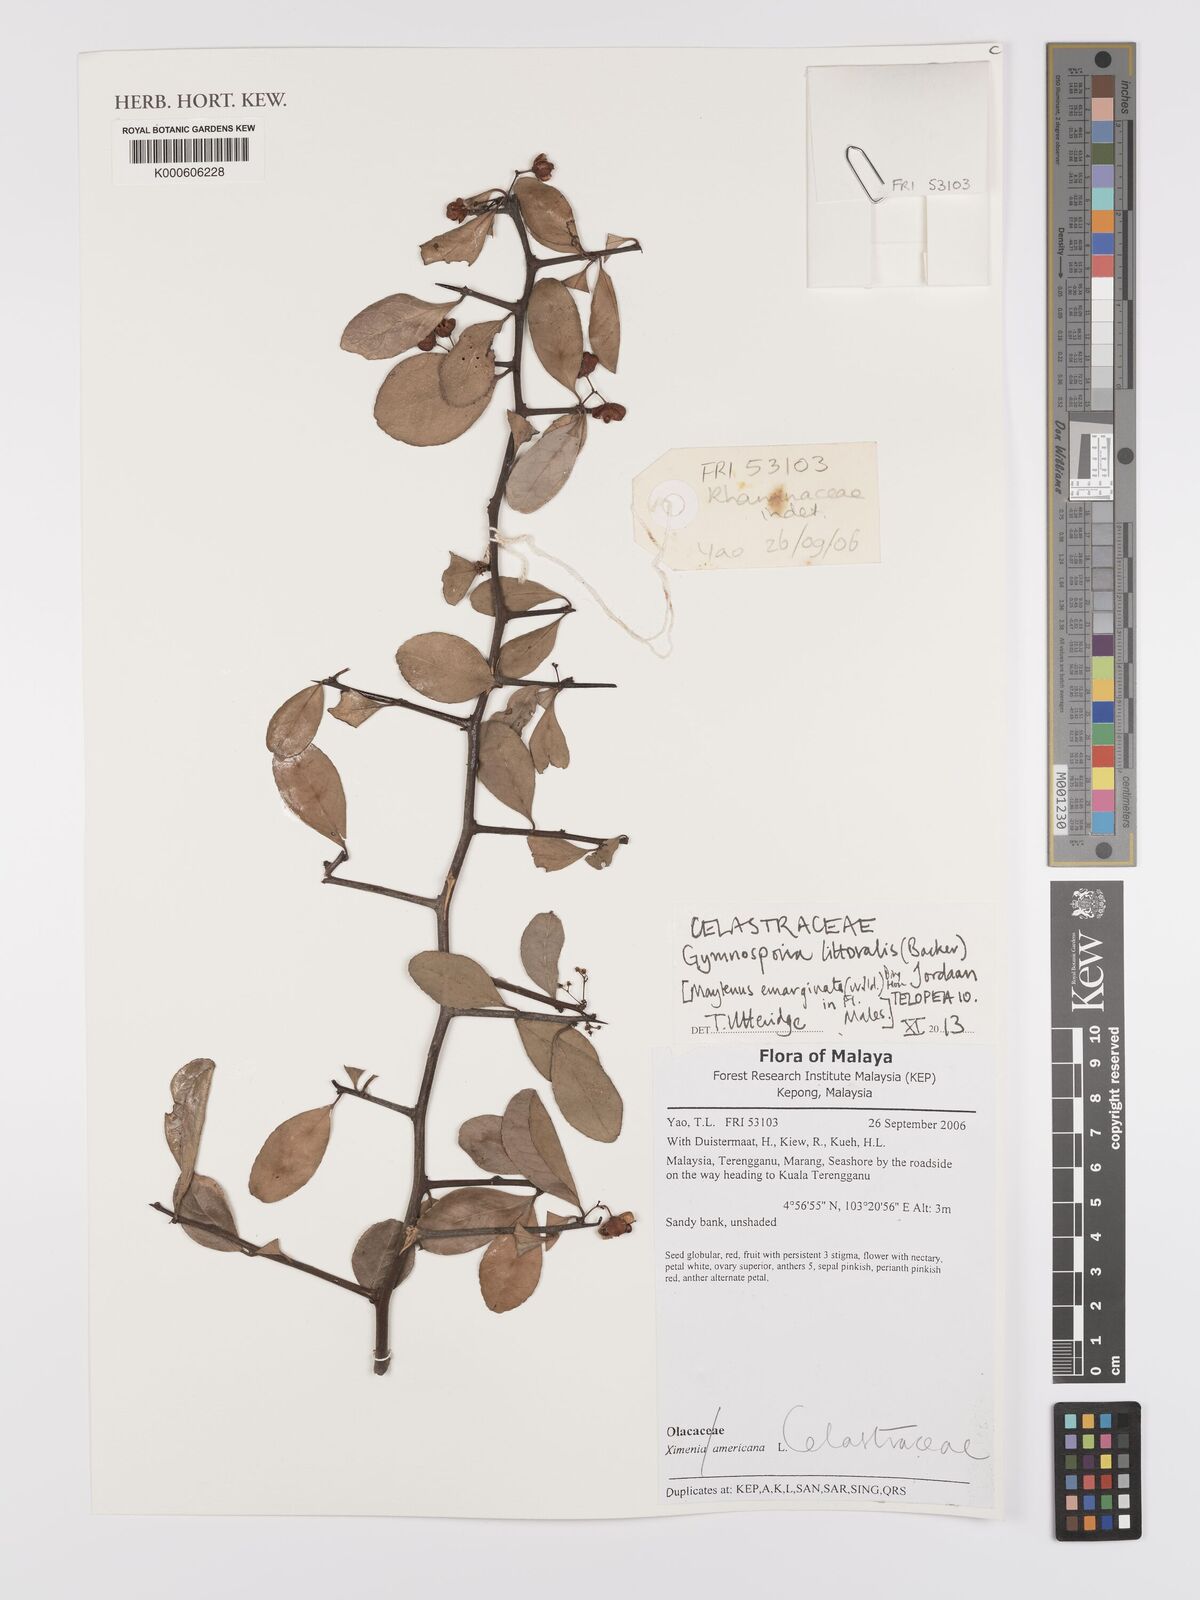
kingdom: Plantae
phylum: Tracheophyta
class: Magnoliopsida
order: Celastrales
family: Celastraceae
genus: Gymnosporia
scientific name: Gymnosporia emarginata
